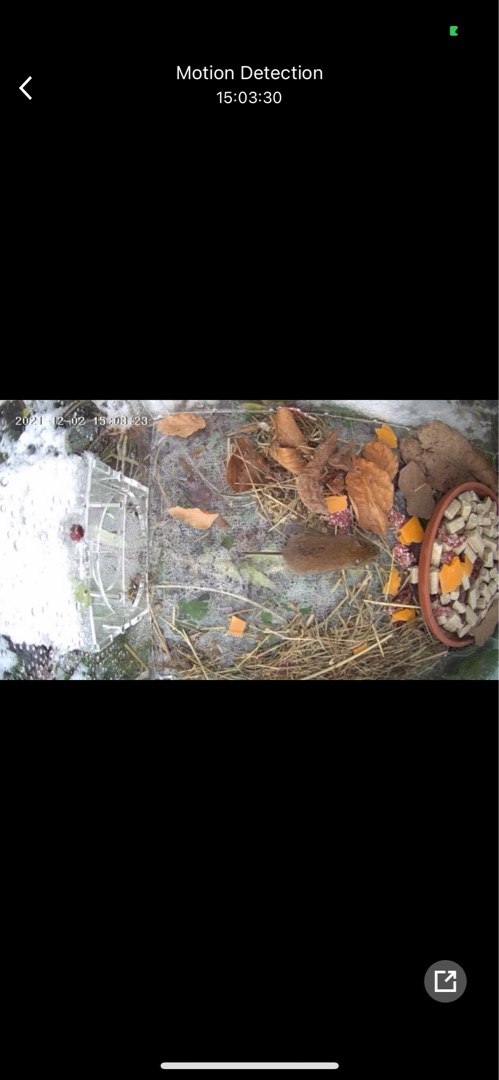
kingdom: Animalia
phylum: Chordata
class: Mammalia
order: Rodentia
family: Cricetidae
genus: Myodes
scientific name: Myodes glareolus
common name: Rødmus
